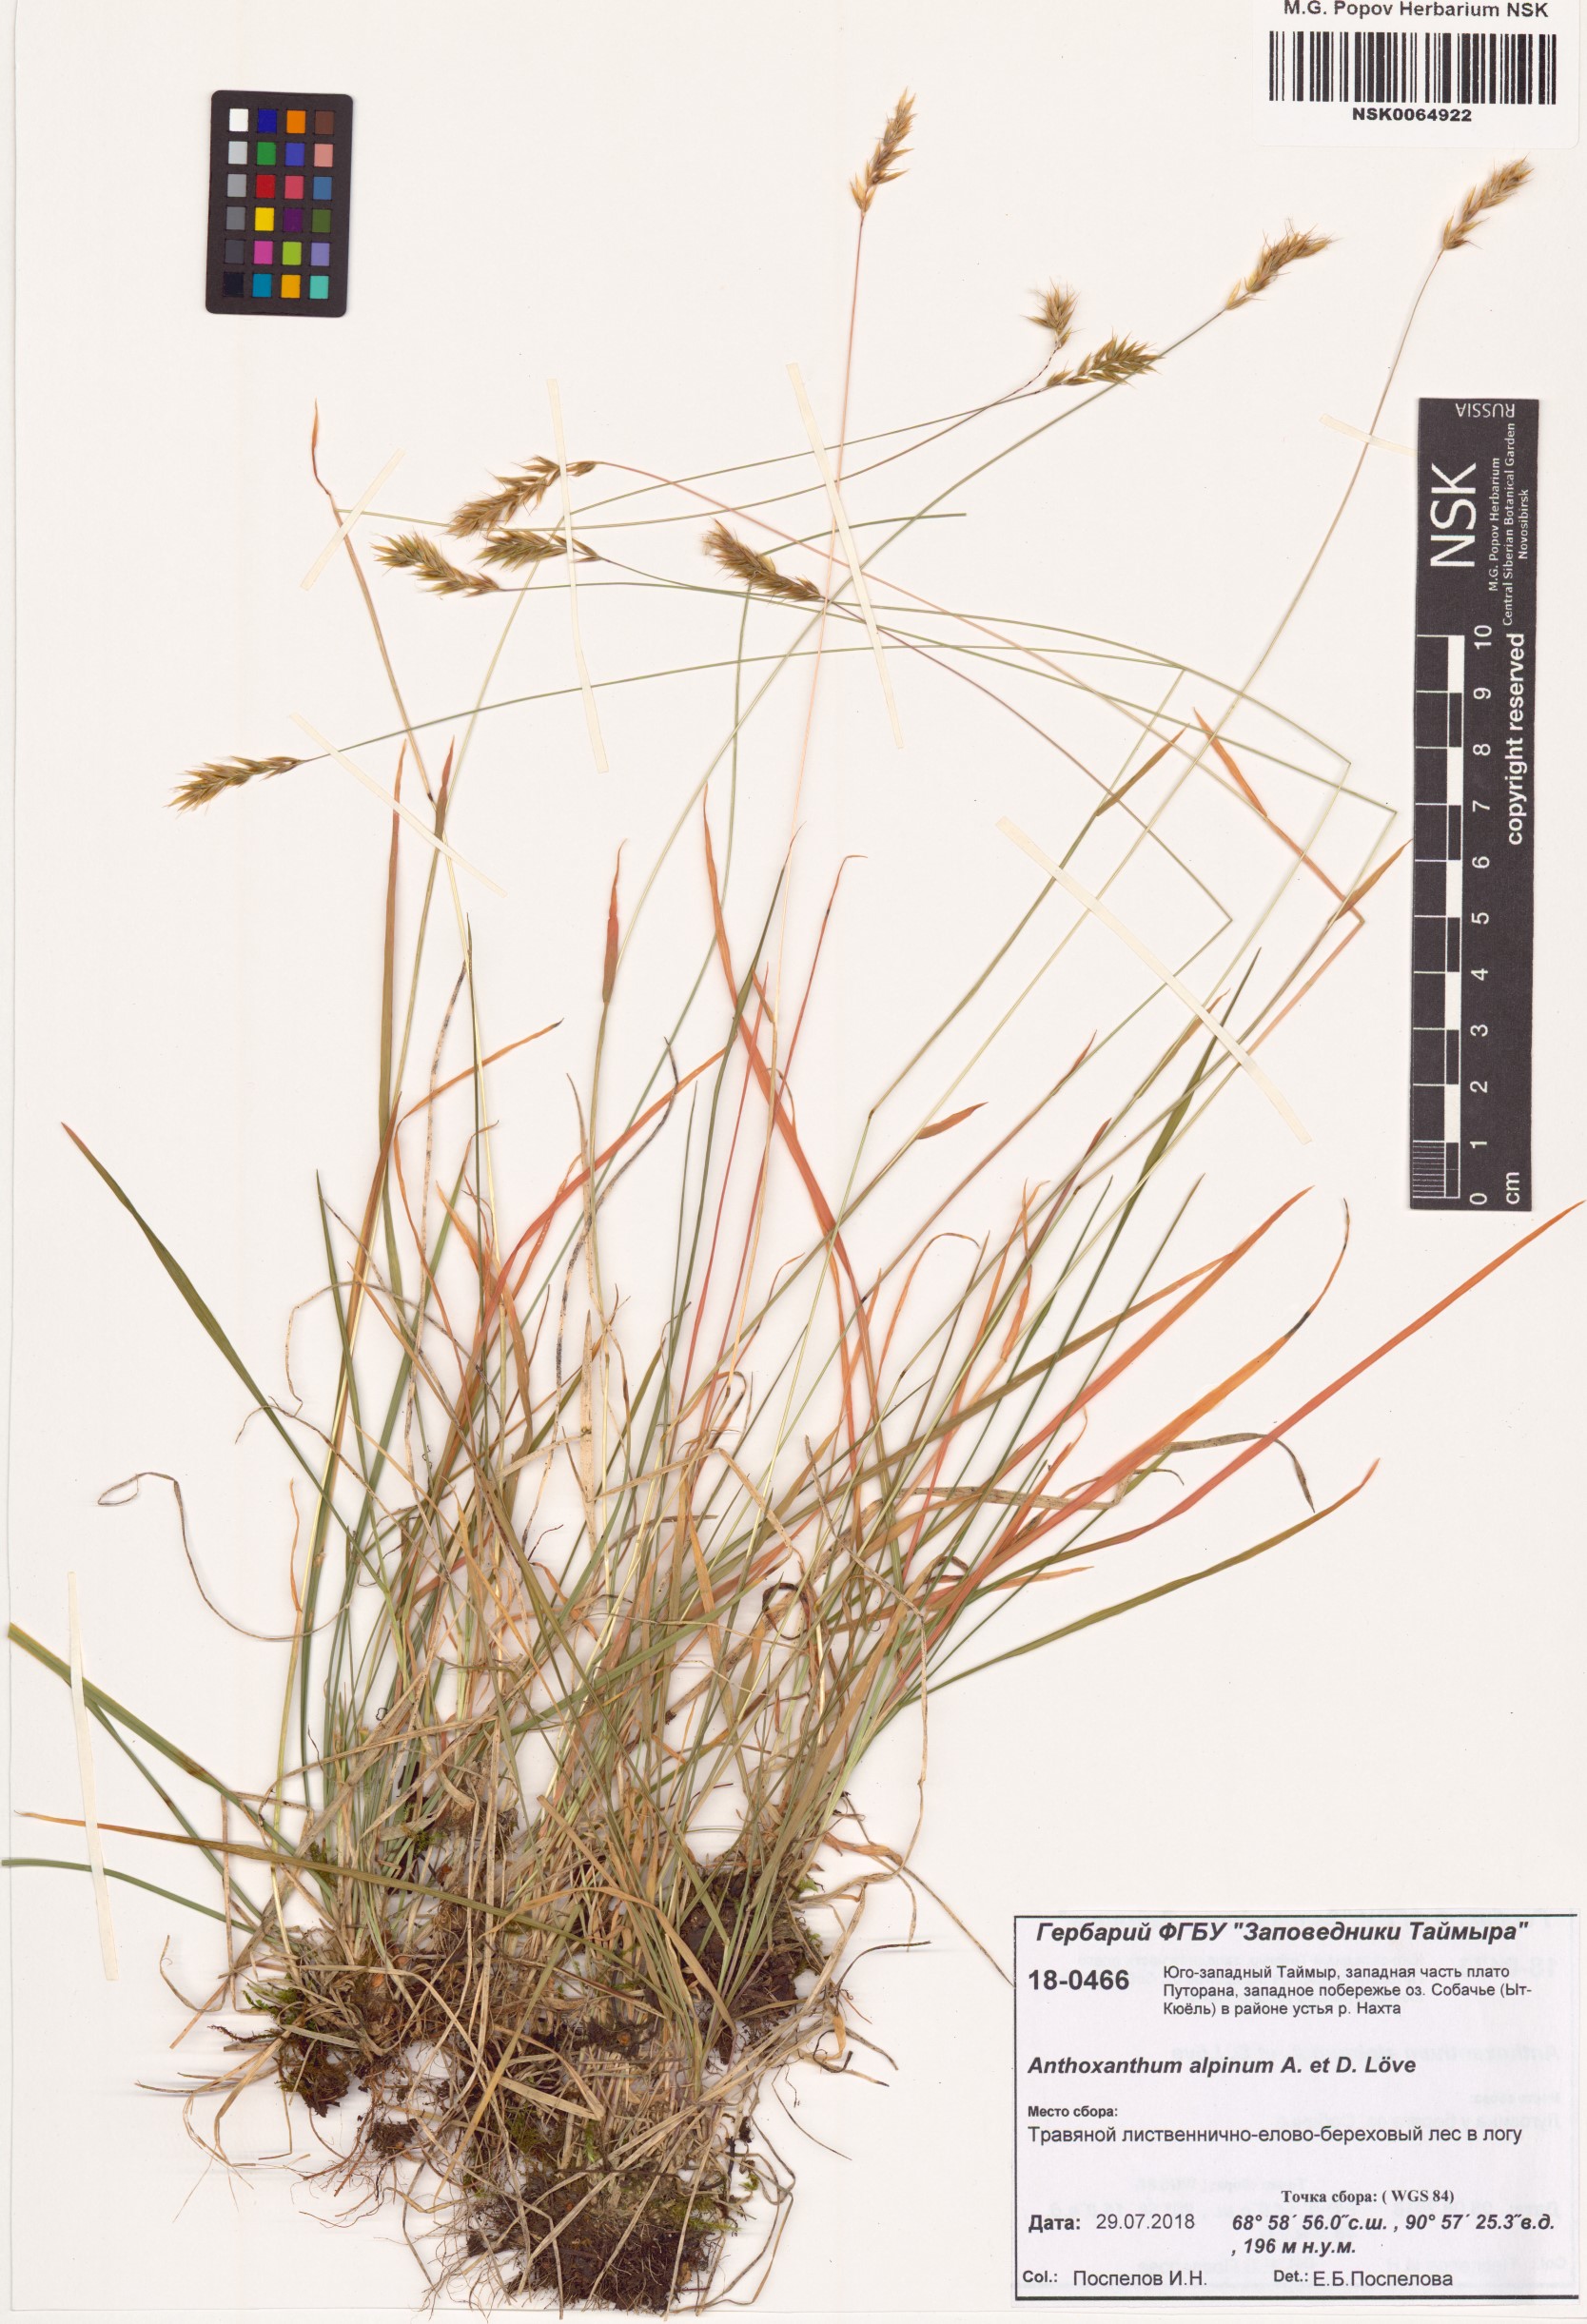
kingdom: Plantae
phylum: Tracheophyta
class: Liliopsida
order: Poales
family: Poaceae
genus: Anthoxanthum
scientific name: Anthoxanthum nipponicum
